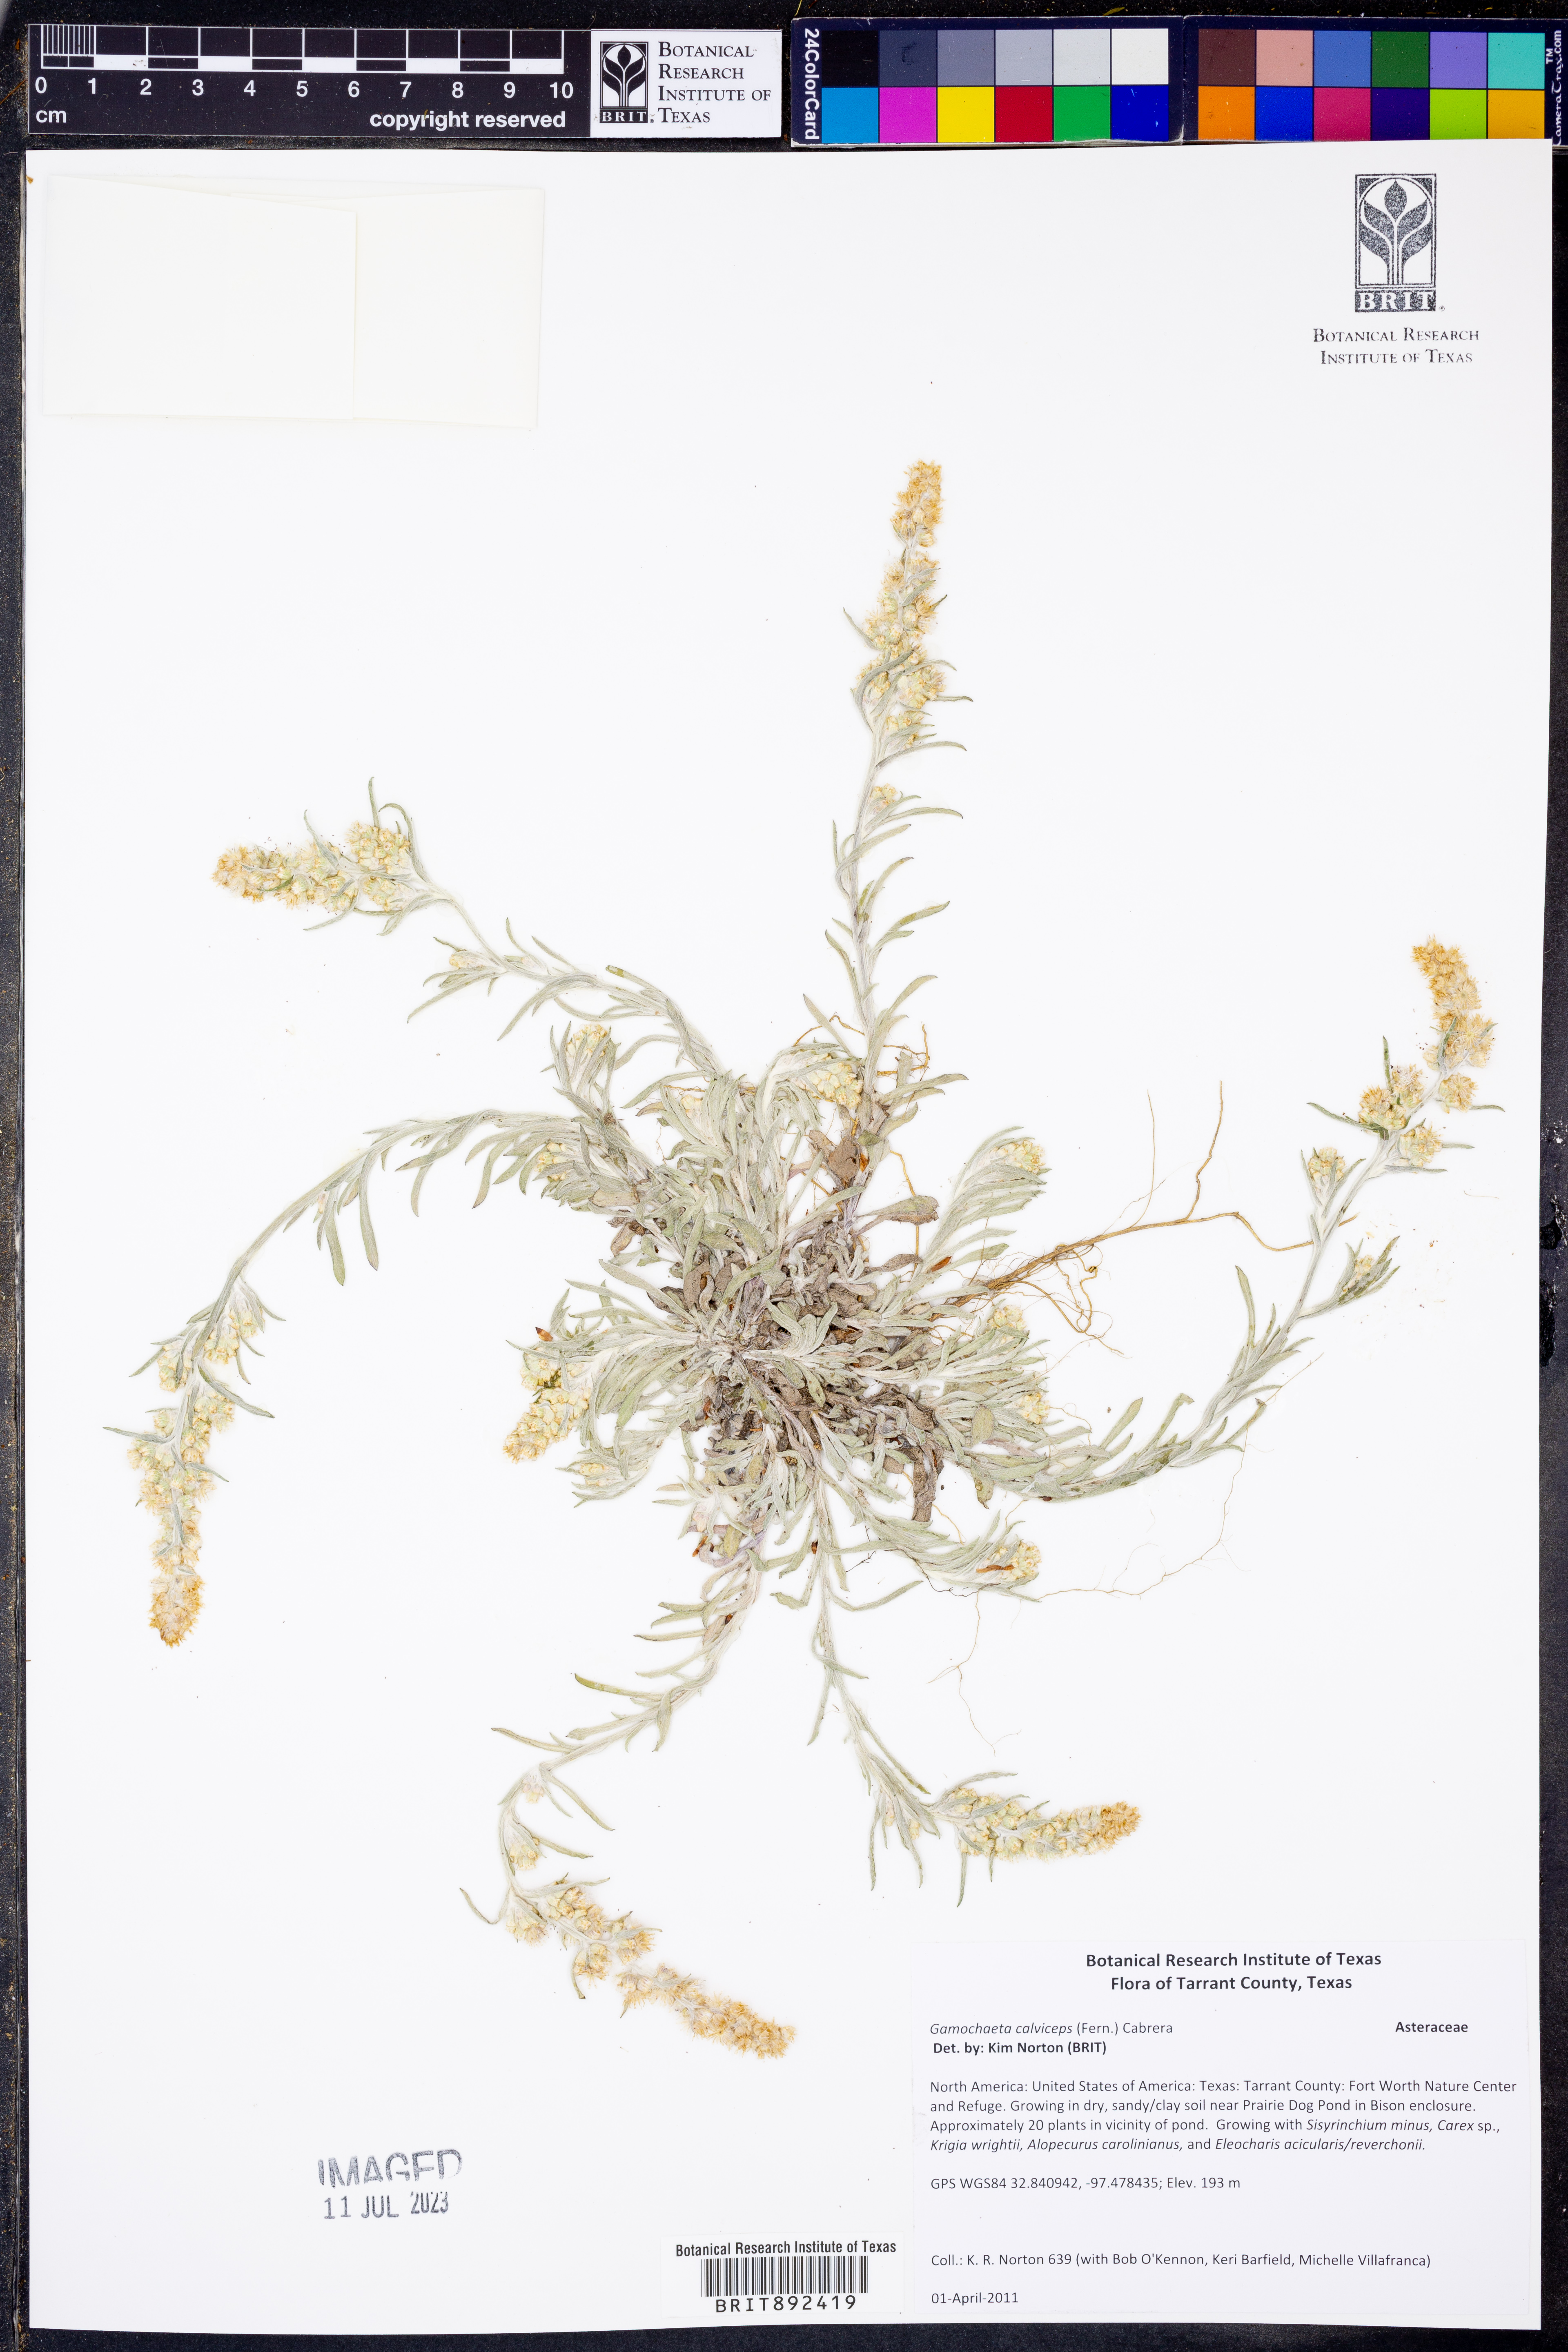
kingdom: Plantae
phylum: Tracheophyta
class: Magnoliopsida
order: Asterales
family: Asteraceae
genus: Gamochaeta
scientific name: Gamochaeta calviceps
